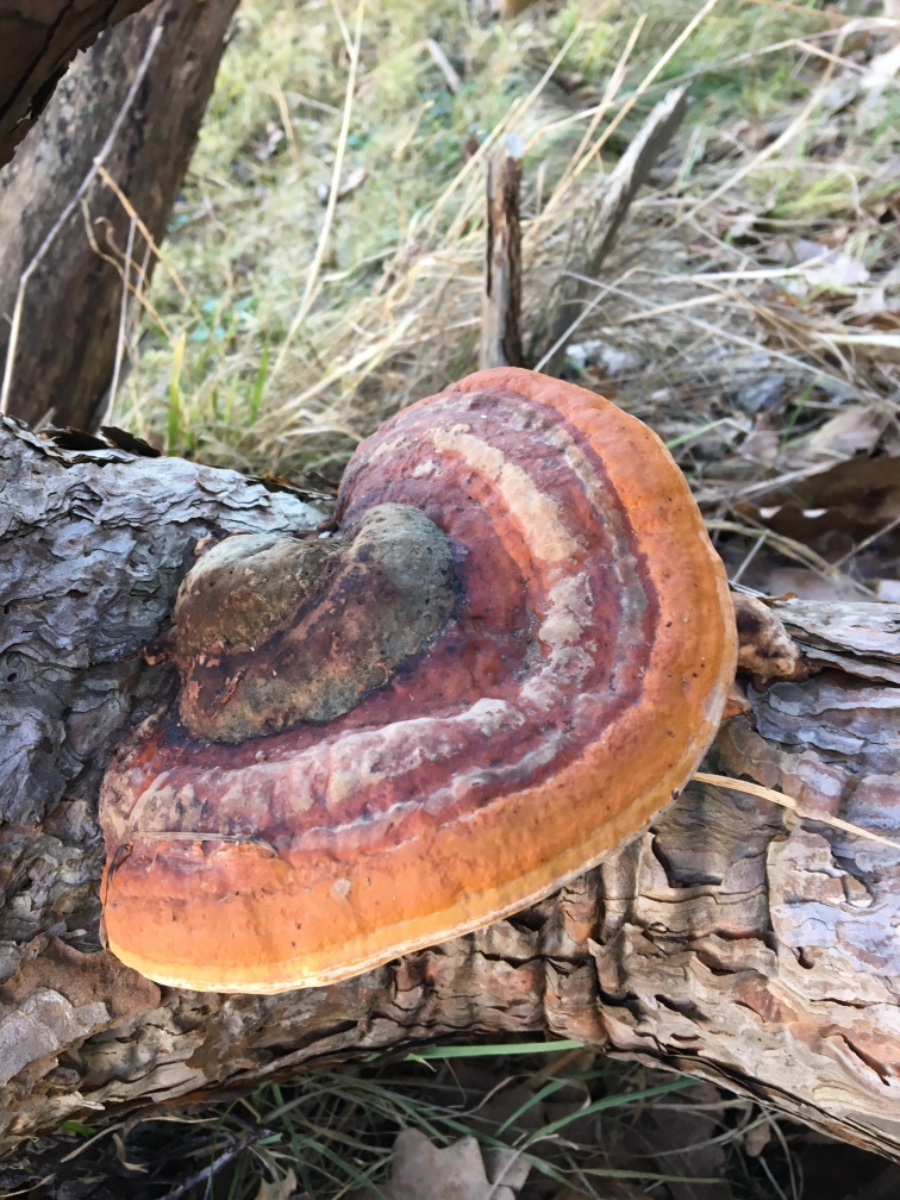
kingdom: Fungi
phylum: Basidiomycota
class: Agaricomycetes
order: Polyporales
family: Fomitopsidaceae
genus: Fomitopsis
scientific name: Fomitopsis pinicola
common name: randbæltet hovporesvamp
